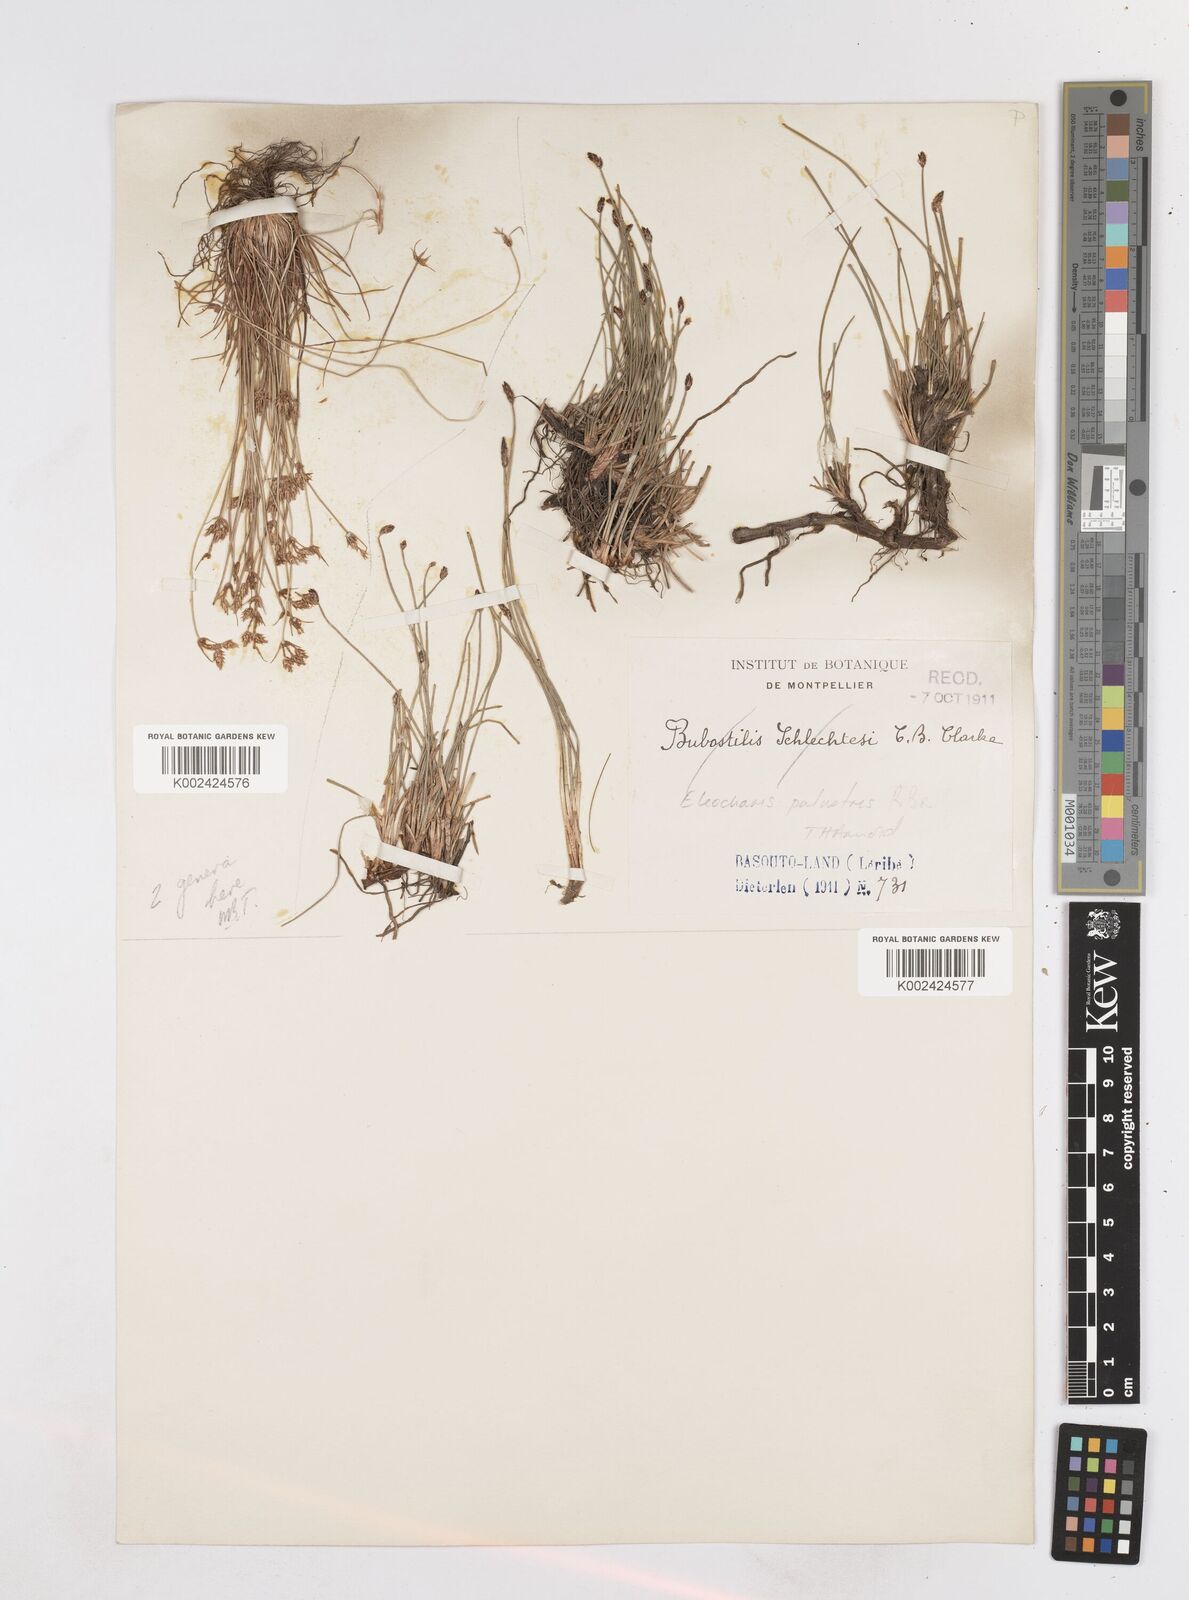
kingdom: Plantae
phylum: Tracheophyta
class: Liliopsida
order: Poales
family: Cyperaceae
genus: Eleocharis
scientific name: Eleocharis palustris
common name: Common spike-rush
